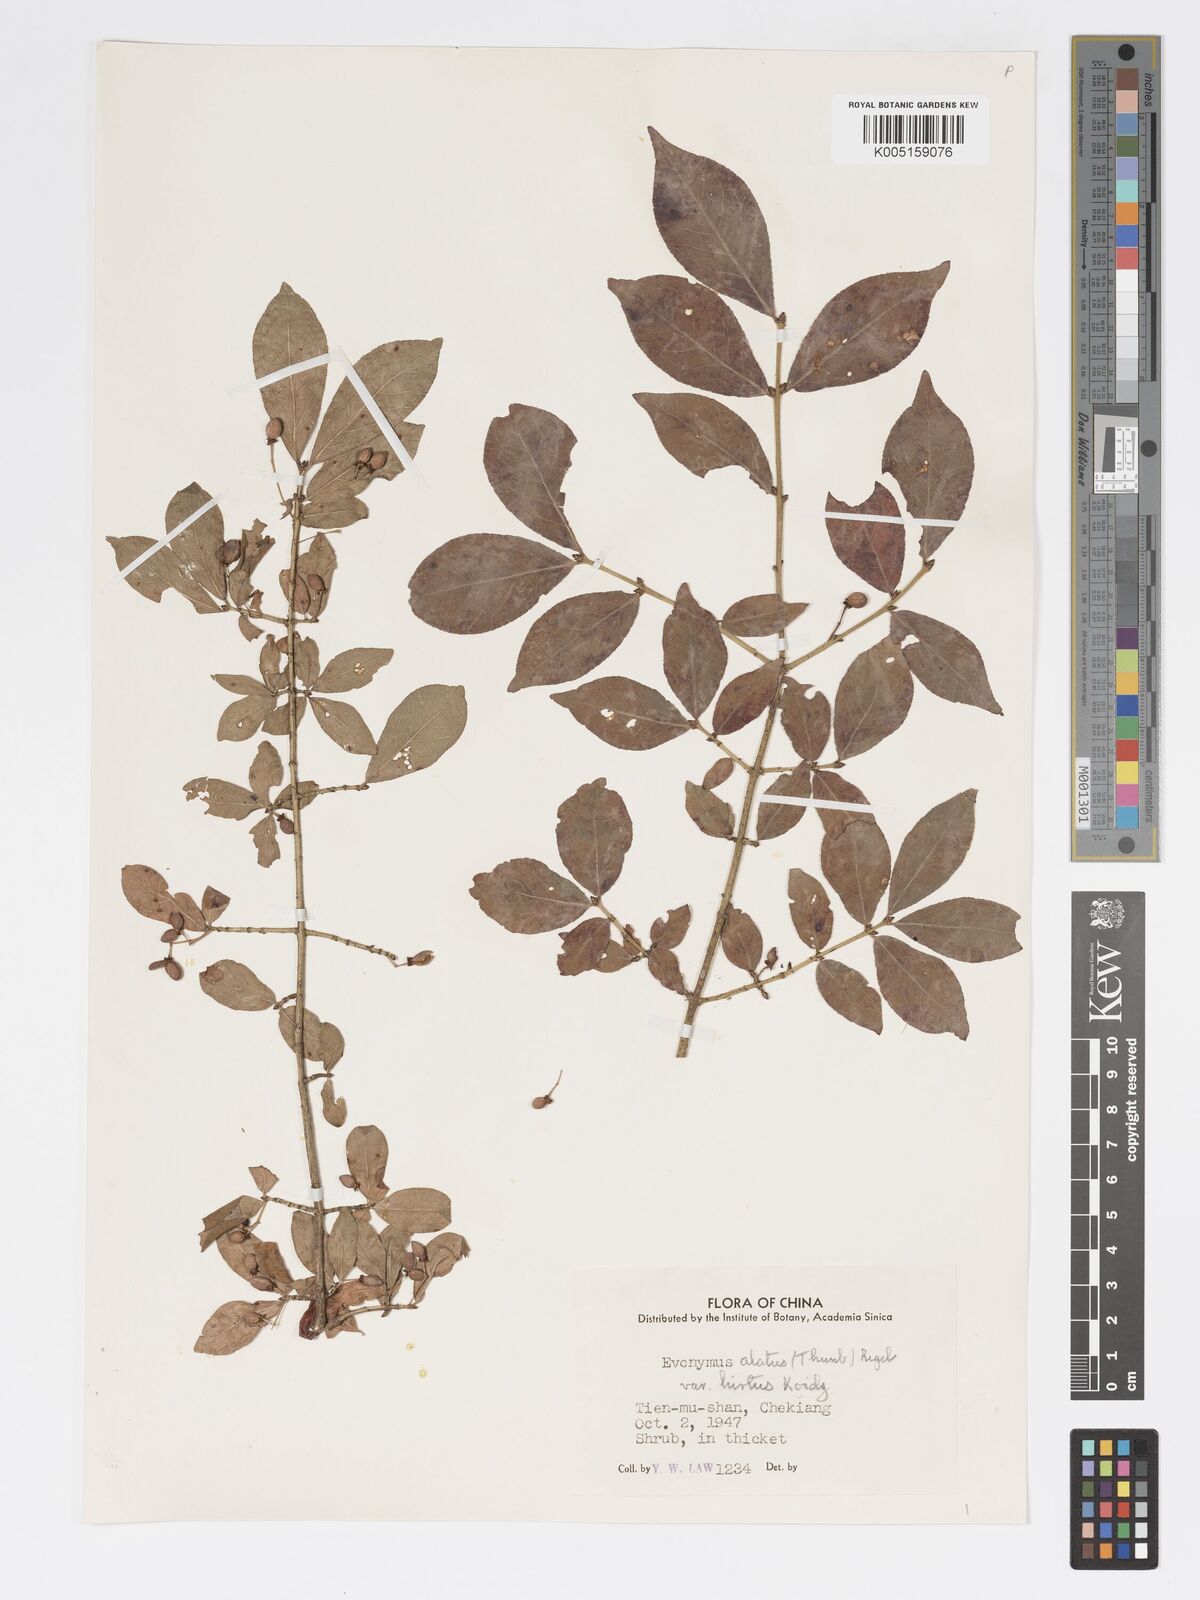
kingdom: Plantae
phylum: Tracheophyta
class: Magnoliopsida
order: Celastrales
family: Celastraceae
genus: Euonymus
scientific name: Euonymus
